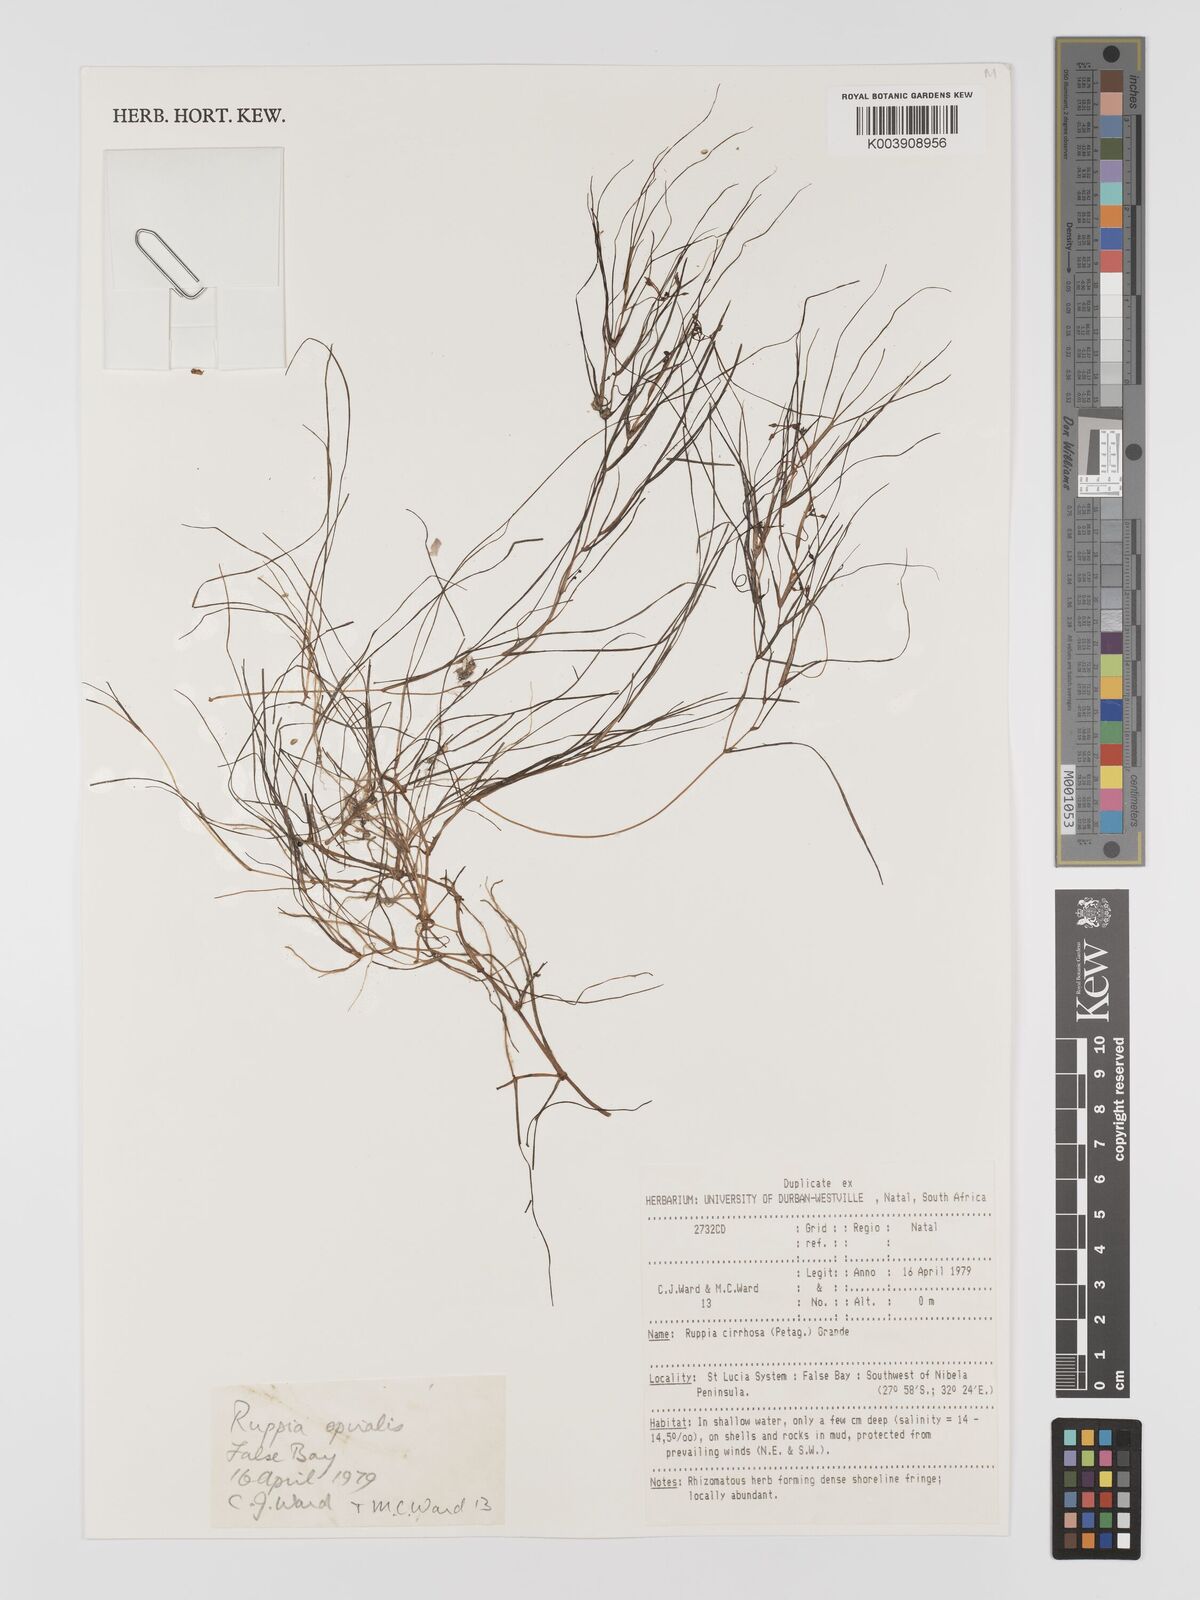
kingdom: Plantae
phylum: Tracheophyta
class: Liliopsida
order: Alismatales
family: Ruppiaceae
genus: Ruppia
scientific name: Ruppia cirrhosa
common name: Spiral tasselweed
